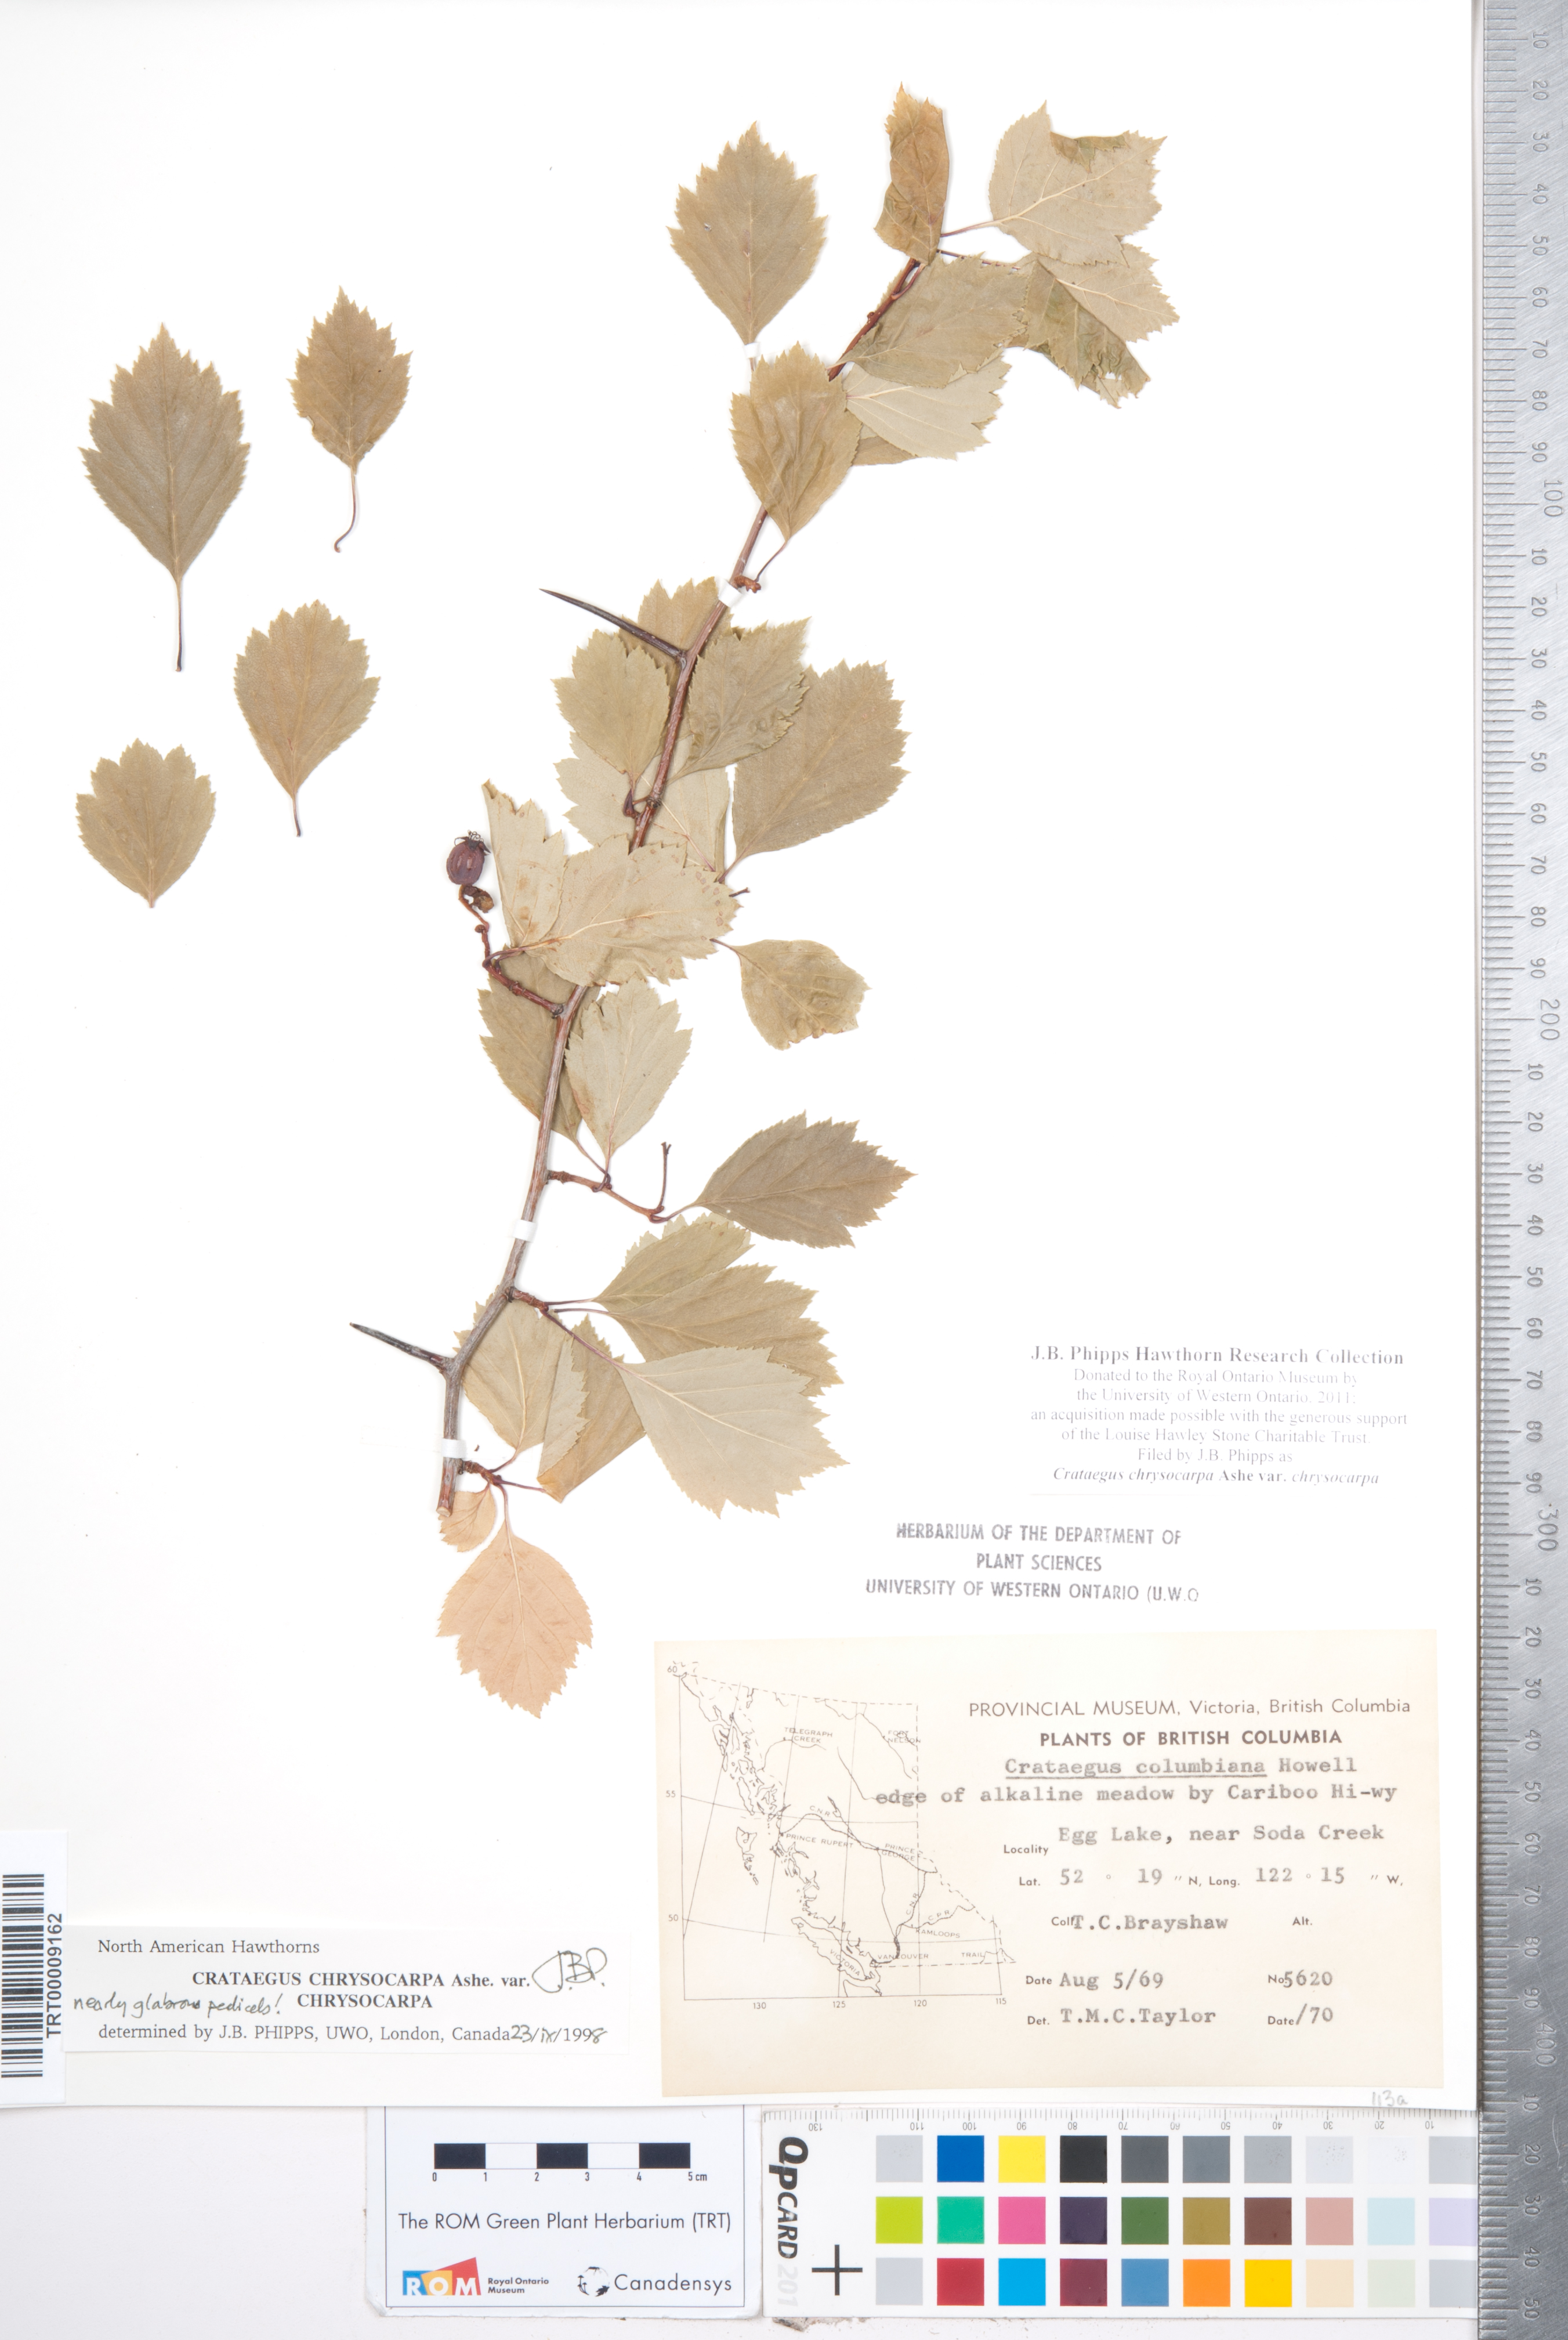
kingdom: Plantae
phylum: Tracheophyta
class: Magnoliopsida
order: Rosales
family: Rosaceae
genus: Crataegus
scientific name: Crataegus chrysocarpa
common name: Fire-berry hawthorn
